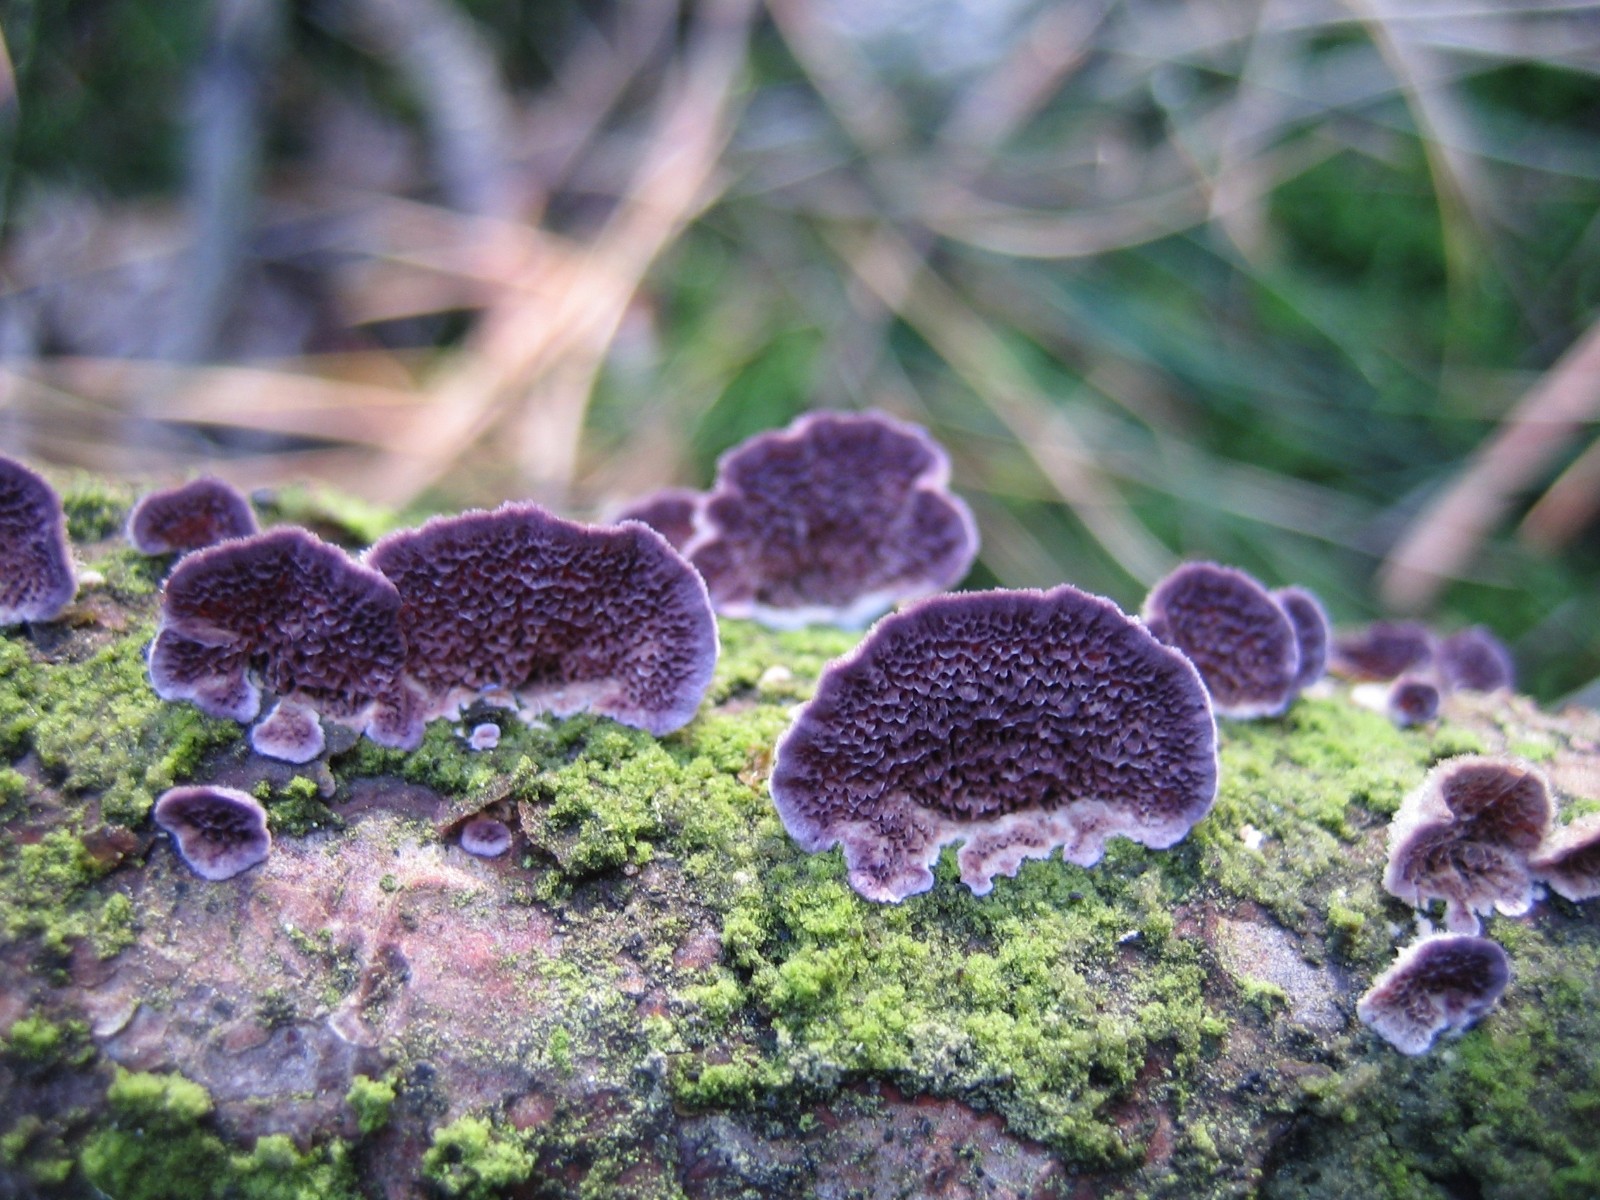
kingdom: Fungi
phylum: Basidiomycota
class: Agaricomycetes
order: Hymenochaetales
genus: Trichaptum
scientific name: Trichaptum abietinum
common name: almindelig violporesvamp
